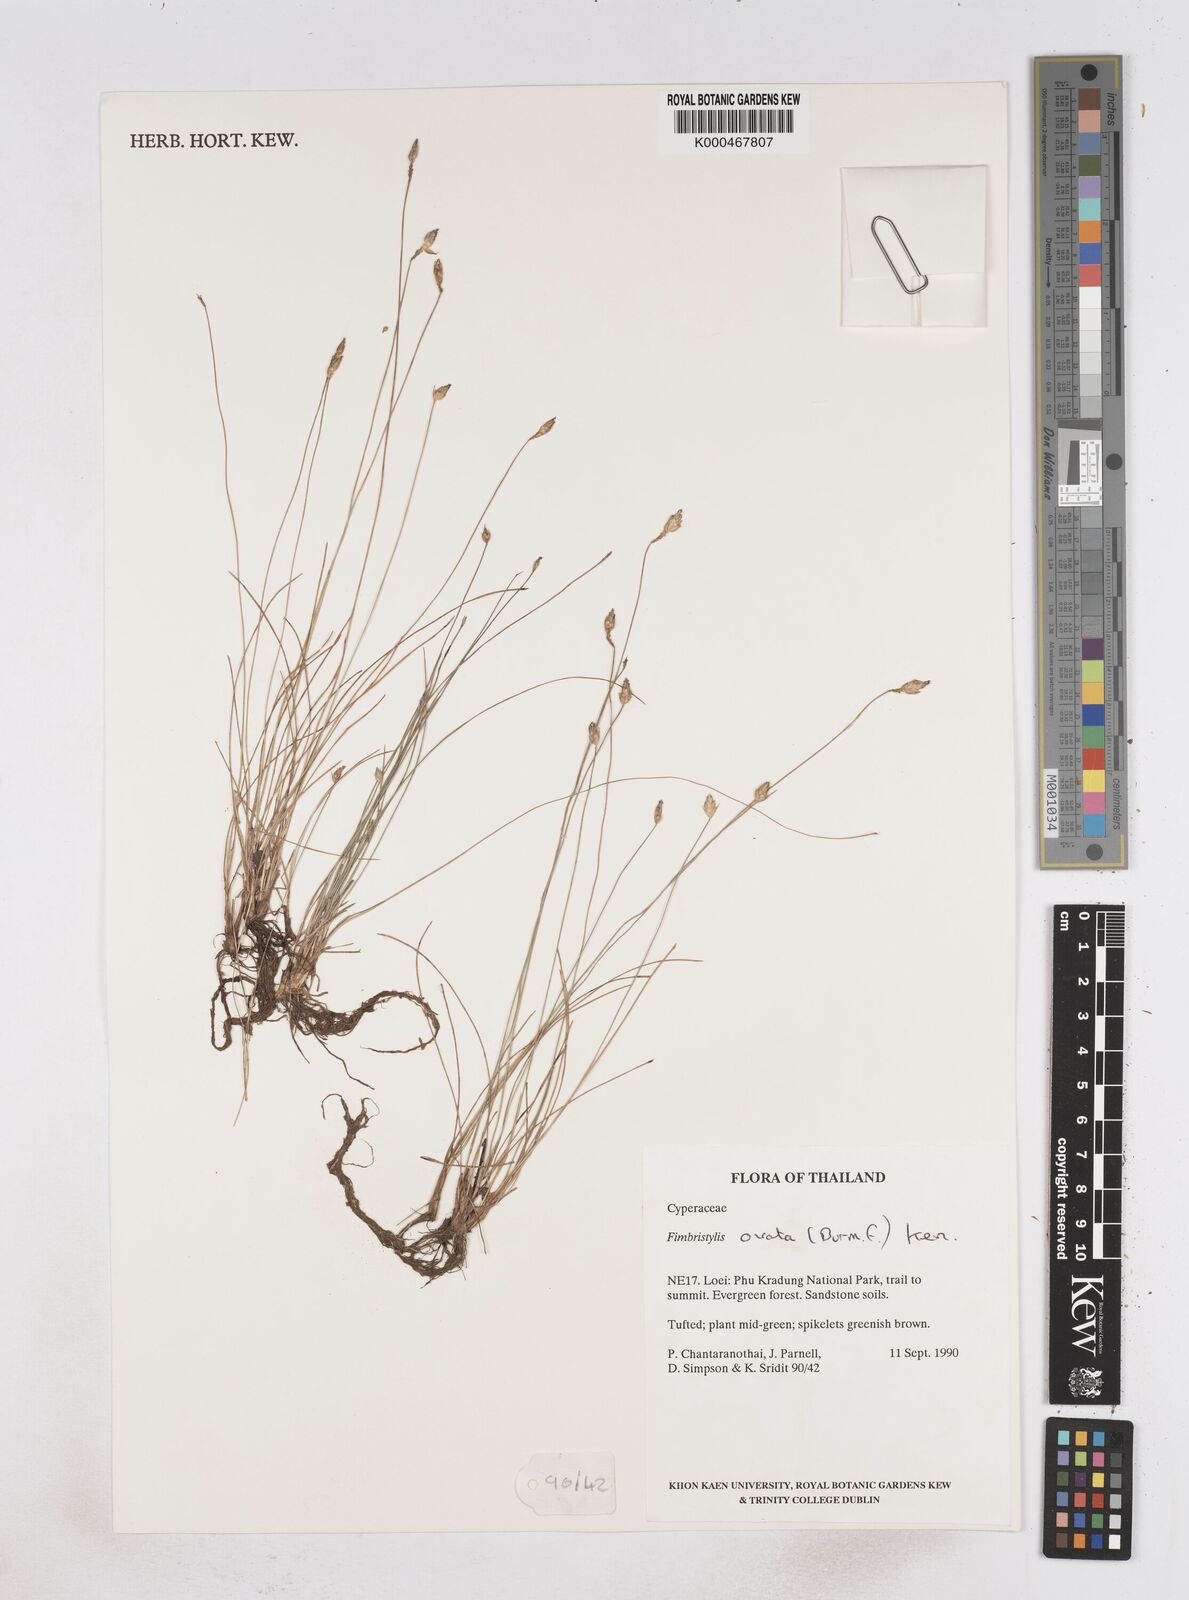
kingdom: Plantae
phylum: Tracheophyta
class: Liliopsida
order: Poales
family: Cyperaceae
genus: Abildgaardia
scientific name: Abildgaardia ovata
